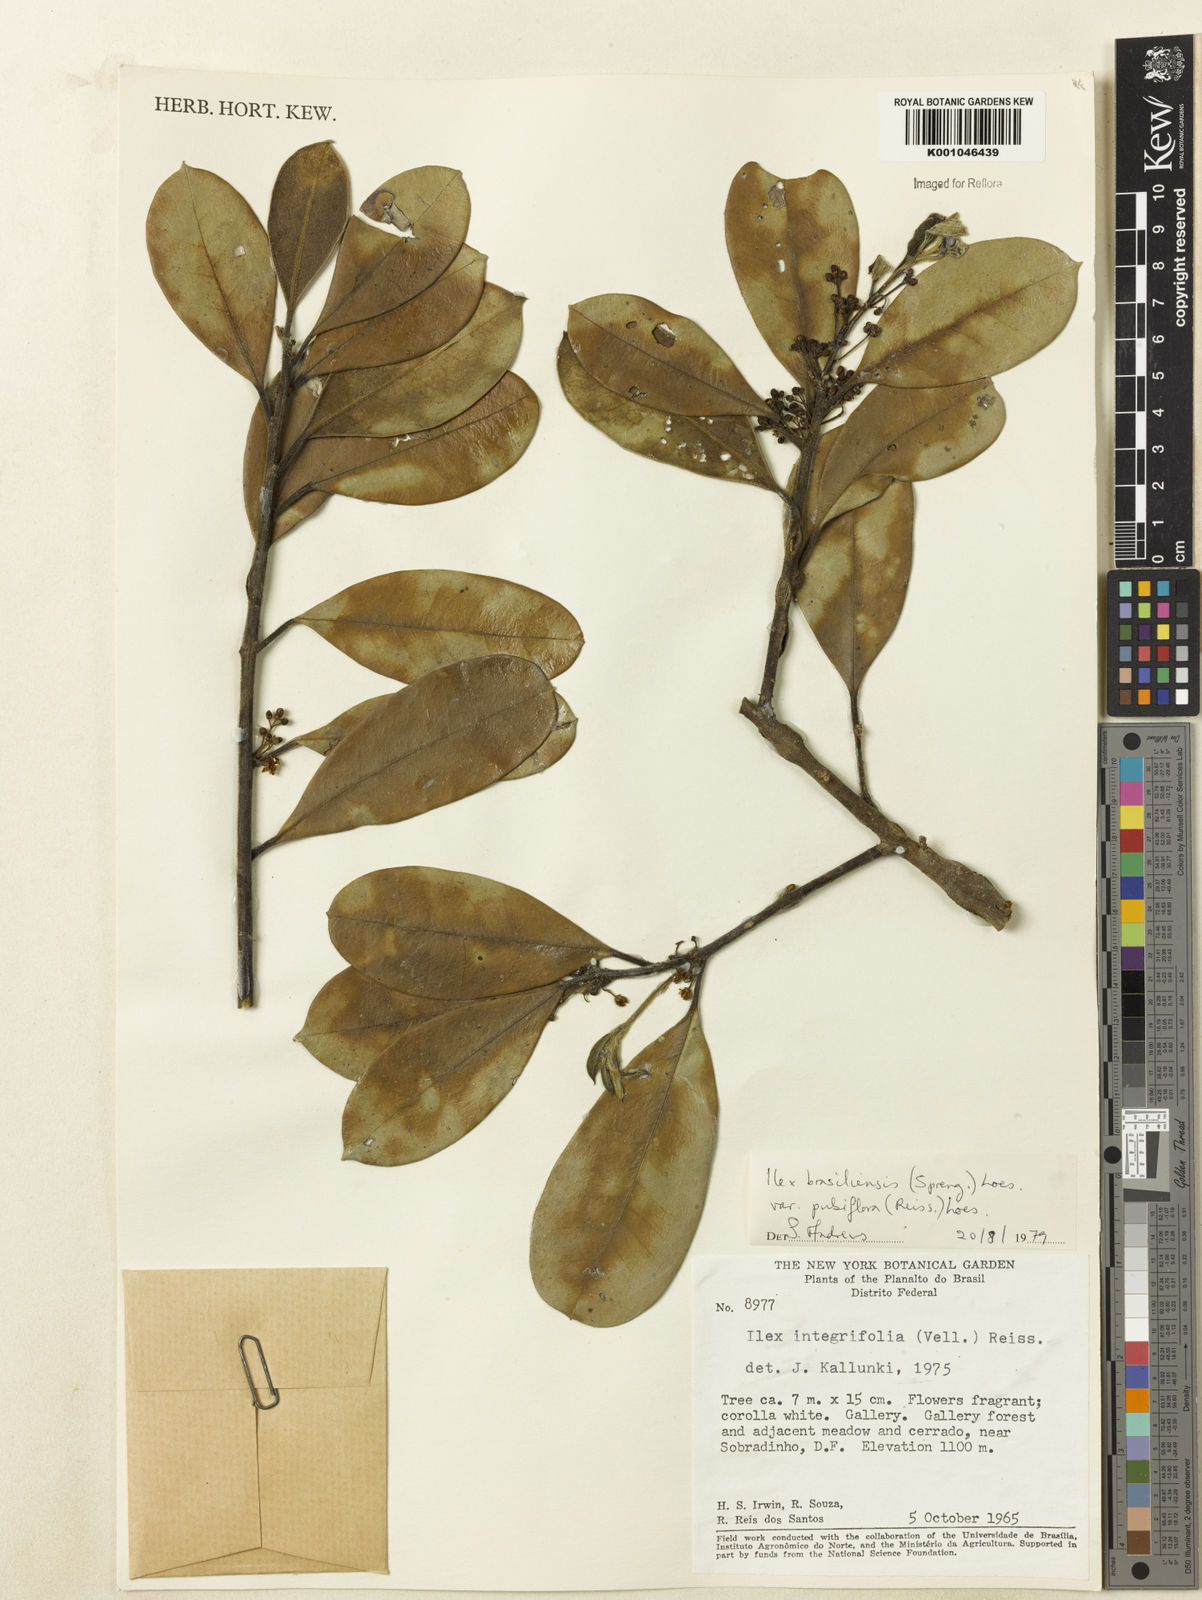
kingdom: Plantae
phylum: Tracheophyta
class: Magnoliopsida
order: Aquifoliales
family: Aquifoliaceae
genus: Ilex
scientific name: Ilex brasiliensis
